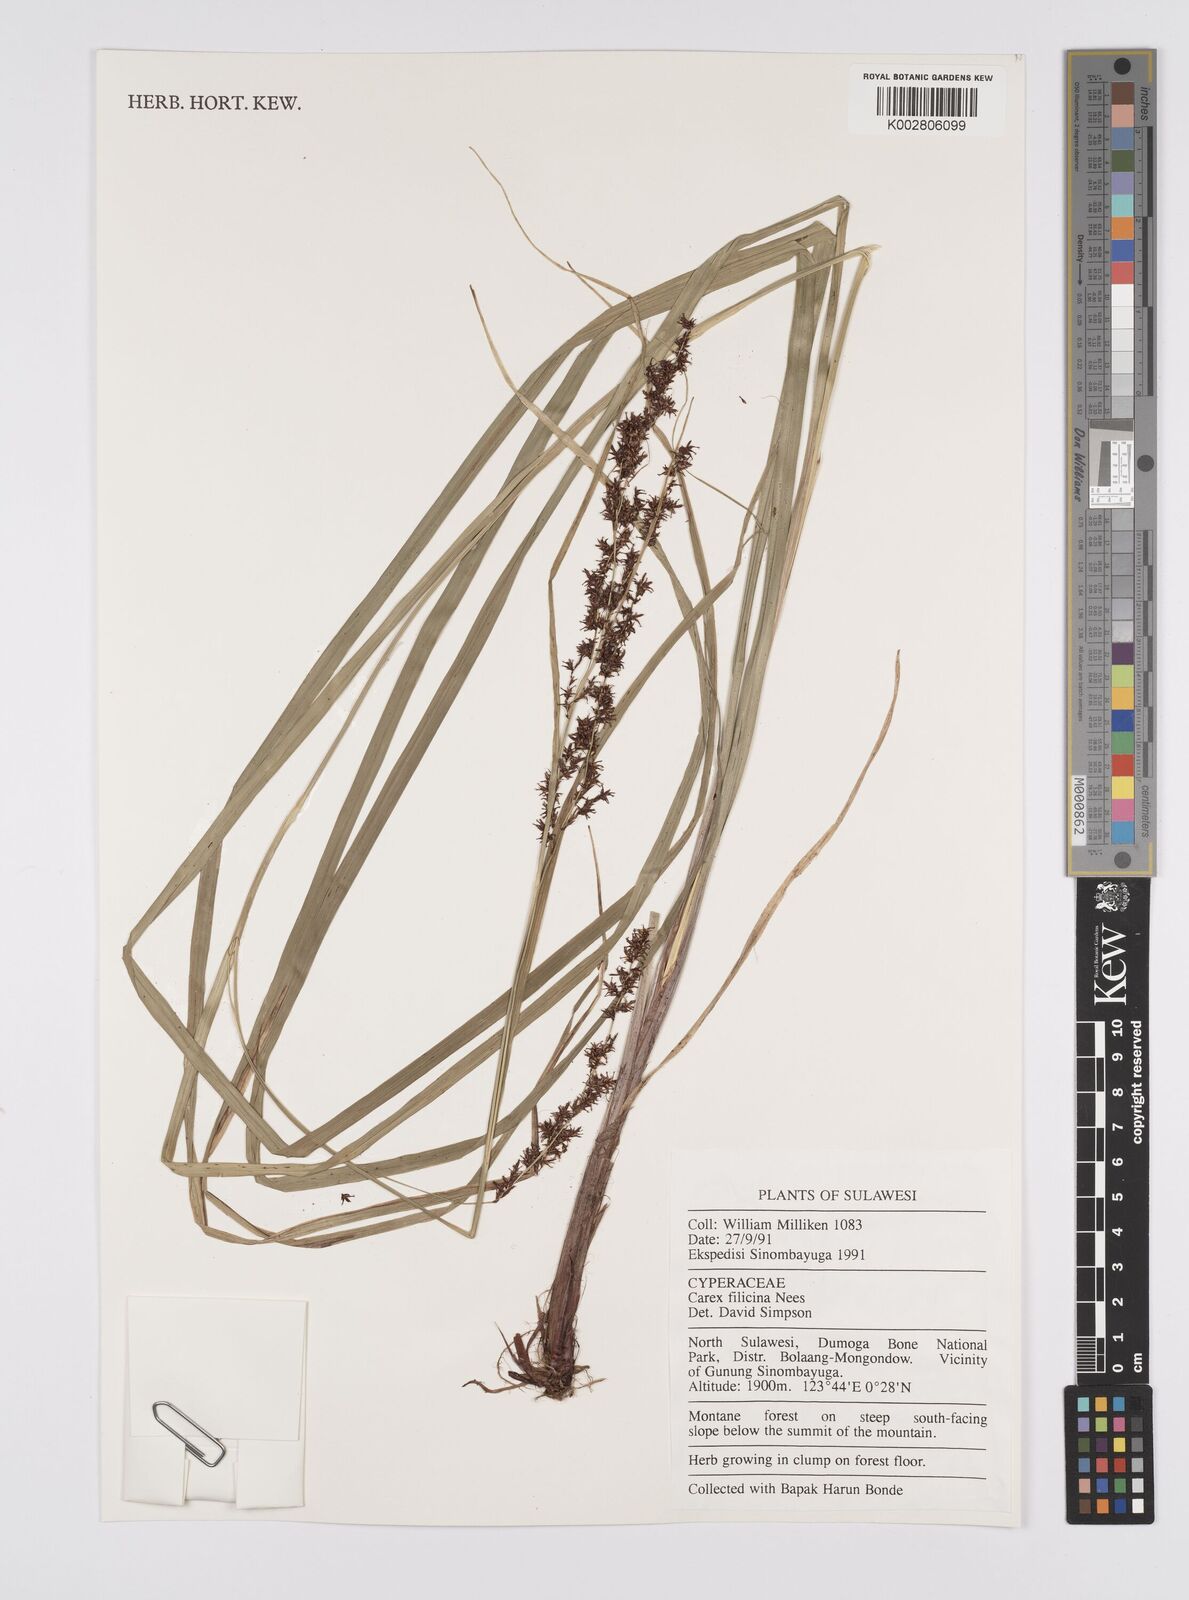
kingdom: Plantae
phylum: Tracheophyta
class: Liliopsida
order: Poales
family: Cyperaceae
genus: Carex
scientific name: Carex filicina
